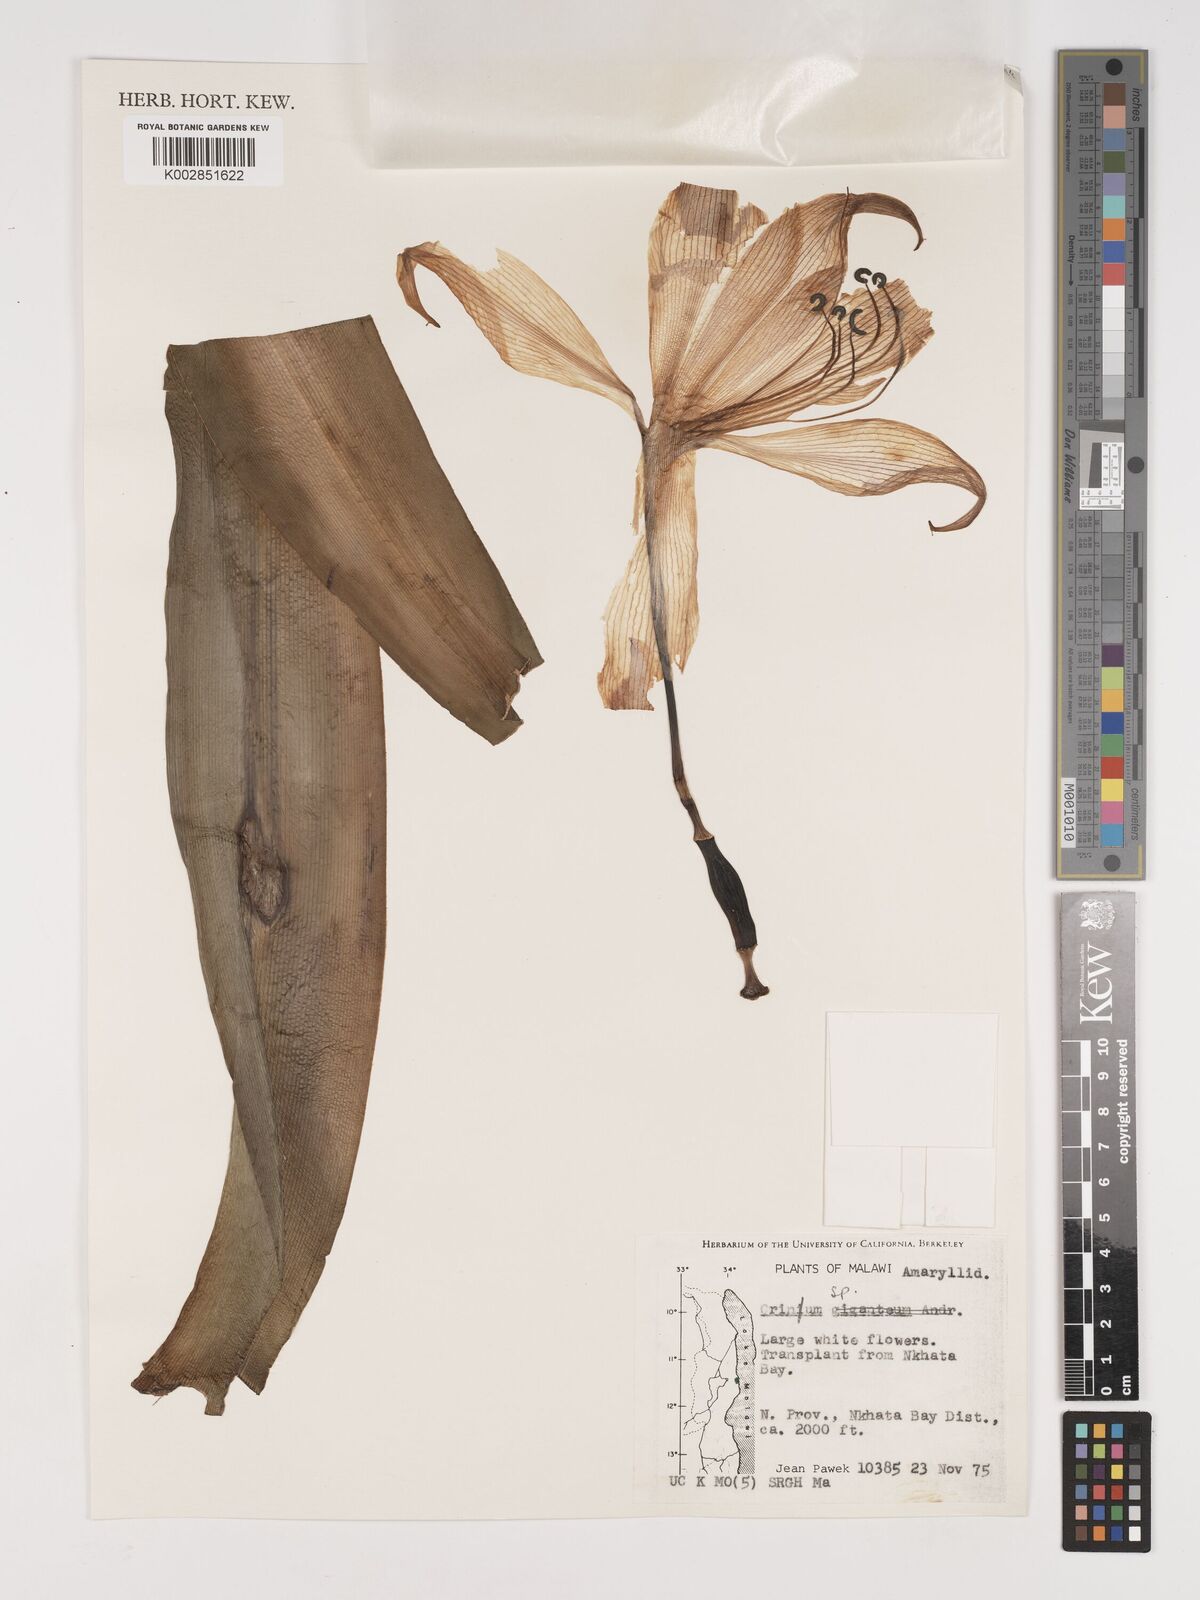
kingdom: Plantae
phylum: Tracheophyta
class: Liliopsida
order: Asparagales
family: Amaryllidaceae
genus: Crinum
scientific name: Crinum
